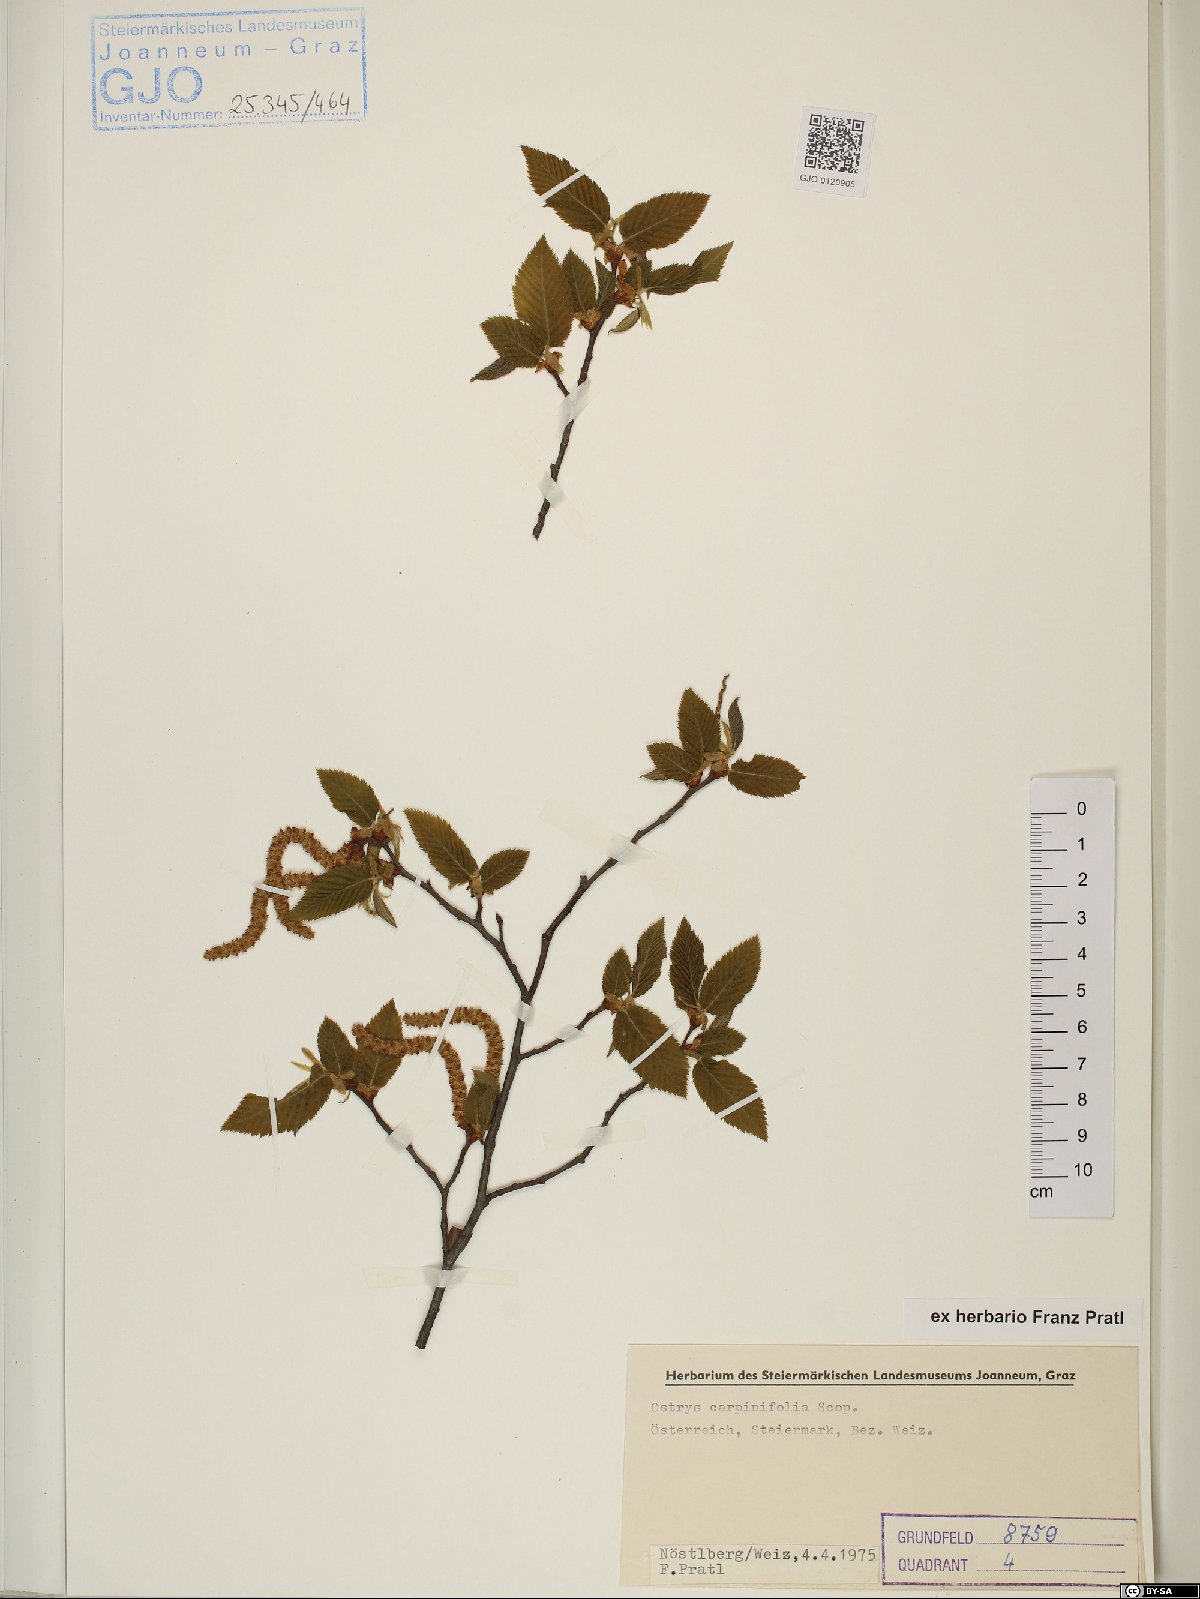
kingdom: Plantae
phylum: Tracheophyta
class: Magnoliopsida
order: Fagales
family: Betulaceae
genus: Ostrya
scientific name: Ostrya carpinifolia
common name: European hop-hornbeam
